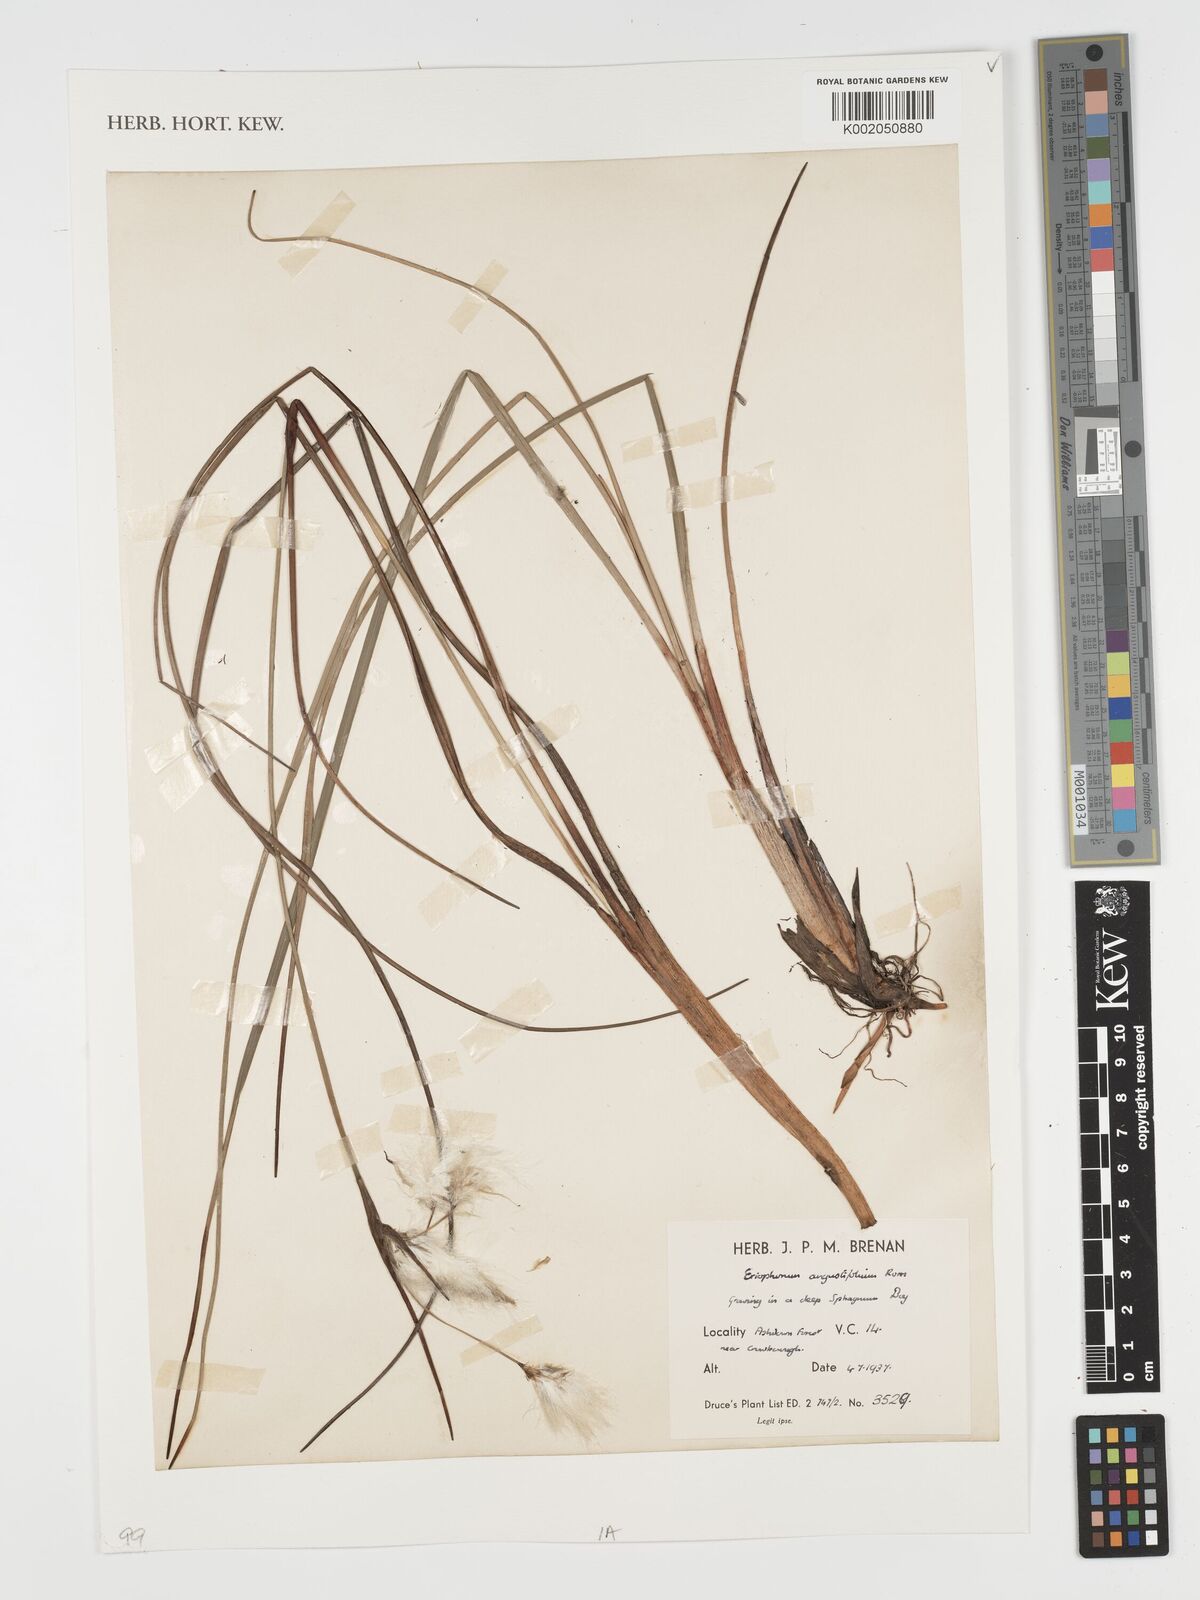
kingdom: Plantae
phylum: Tracheophyta
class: Liliopsida
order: Poales
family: Cyperaceae
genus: Eriophorum
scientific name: Eriophorum angustifolium
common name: Common cottongrass
